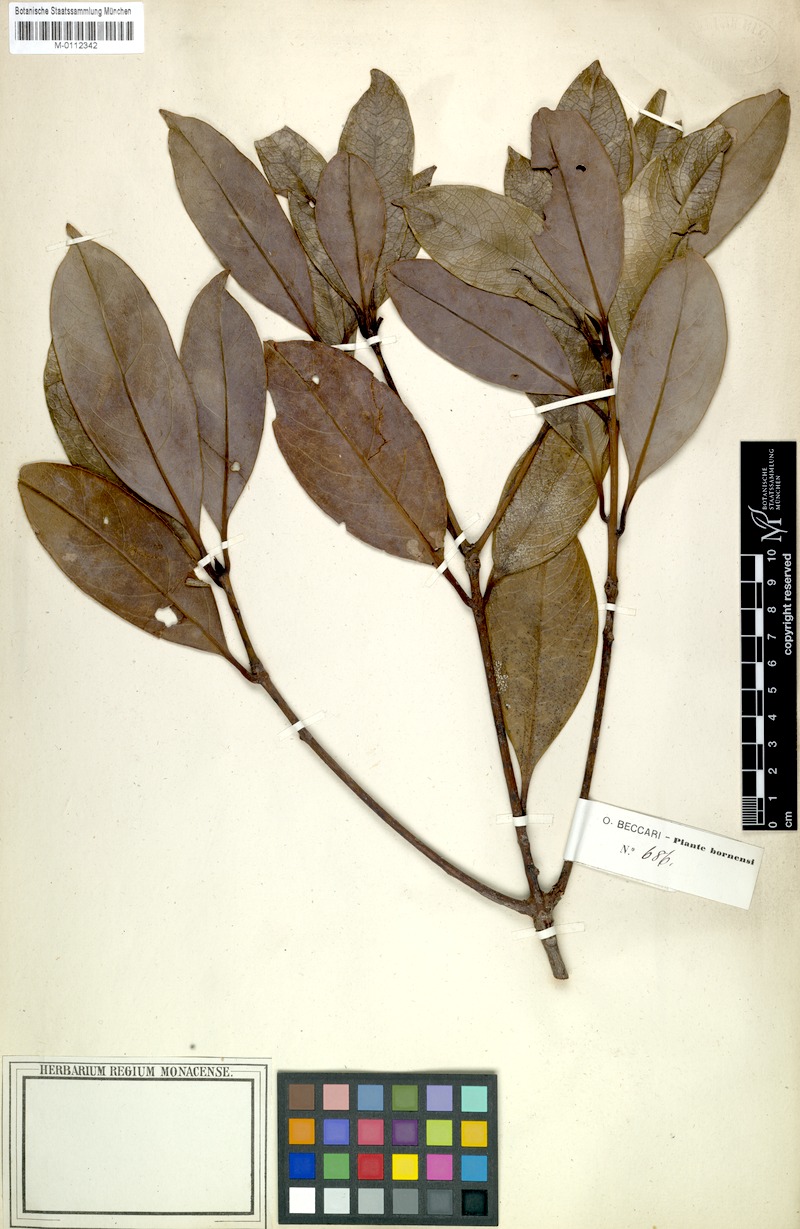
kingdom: Plantae
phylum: Tracheophyta
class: Magnoliopsida
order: Laurales
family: Lauraceae
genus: Beilschmiedia
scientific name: Beilschmiedia glauciphylla
